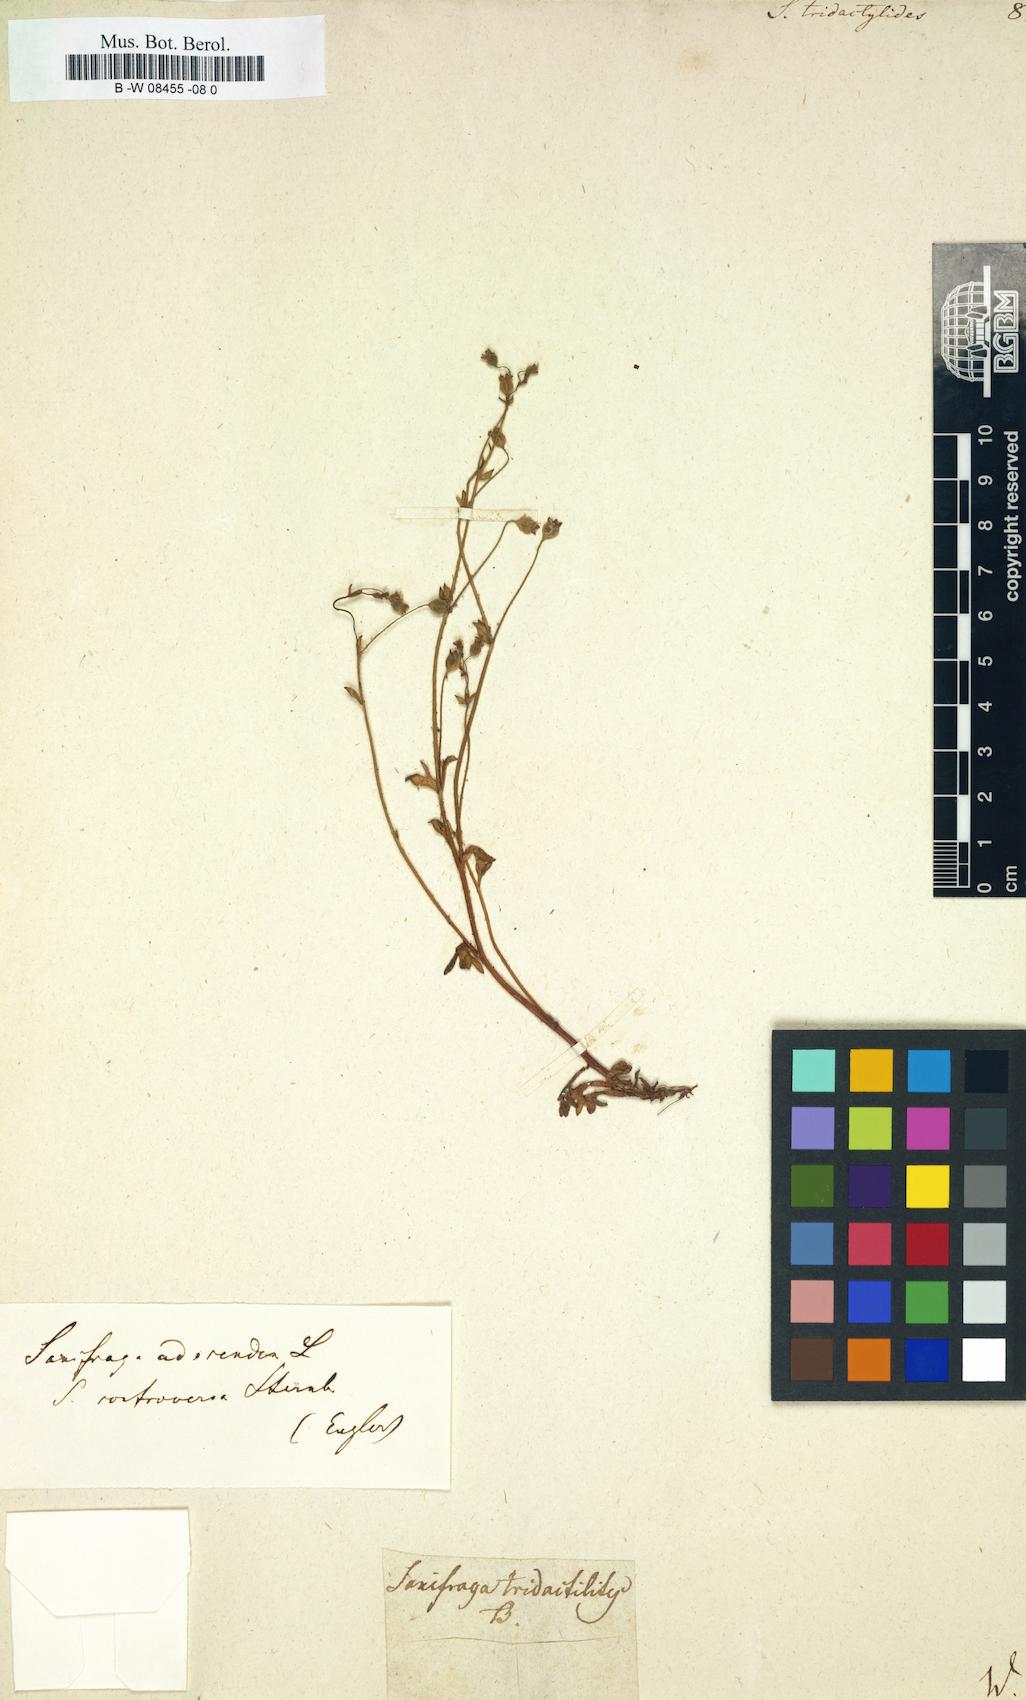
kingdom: Plantae
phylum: Tracheophyta
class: Magnoliopsida
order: Saxifragales
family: Saxifragaceae
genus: Saxifraga
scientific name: Saxifraga tridactylites
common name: Rue-leaved saxifrage
